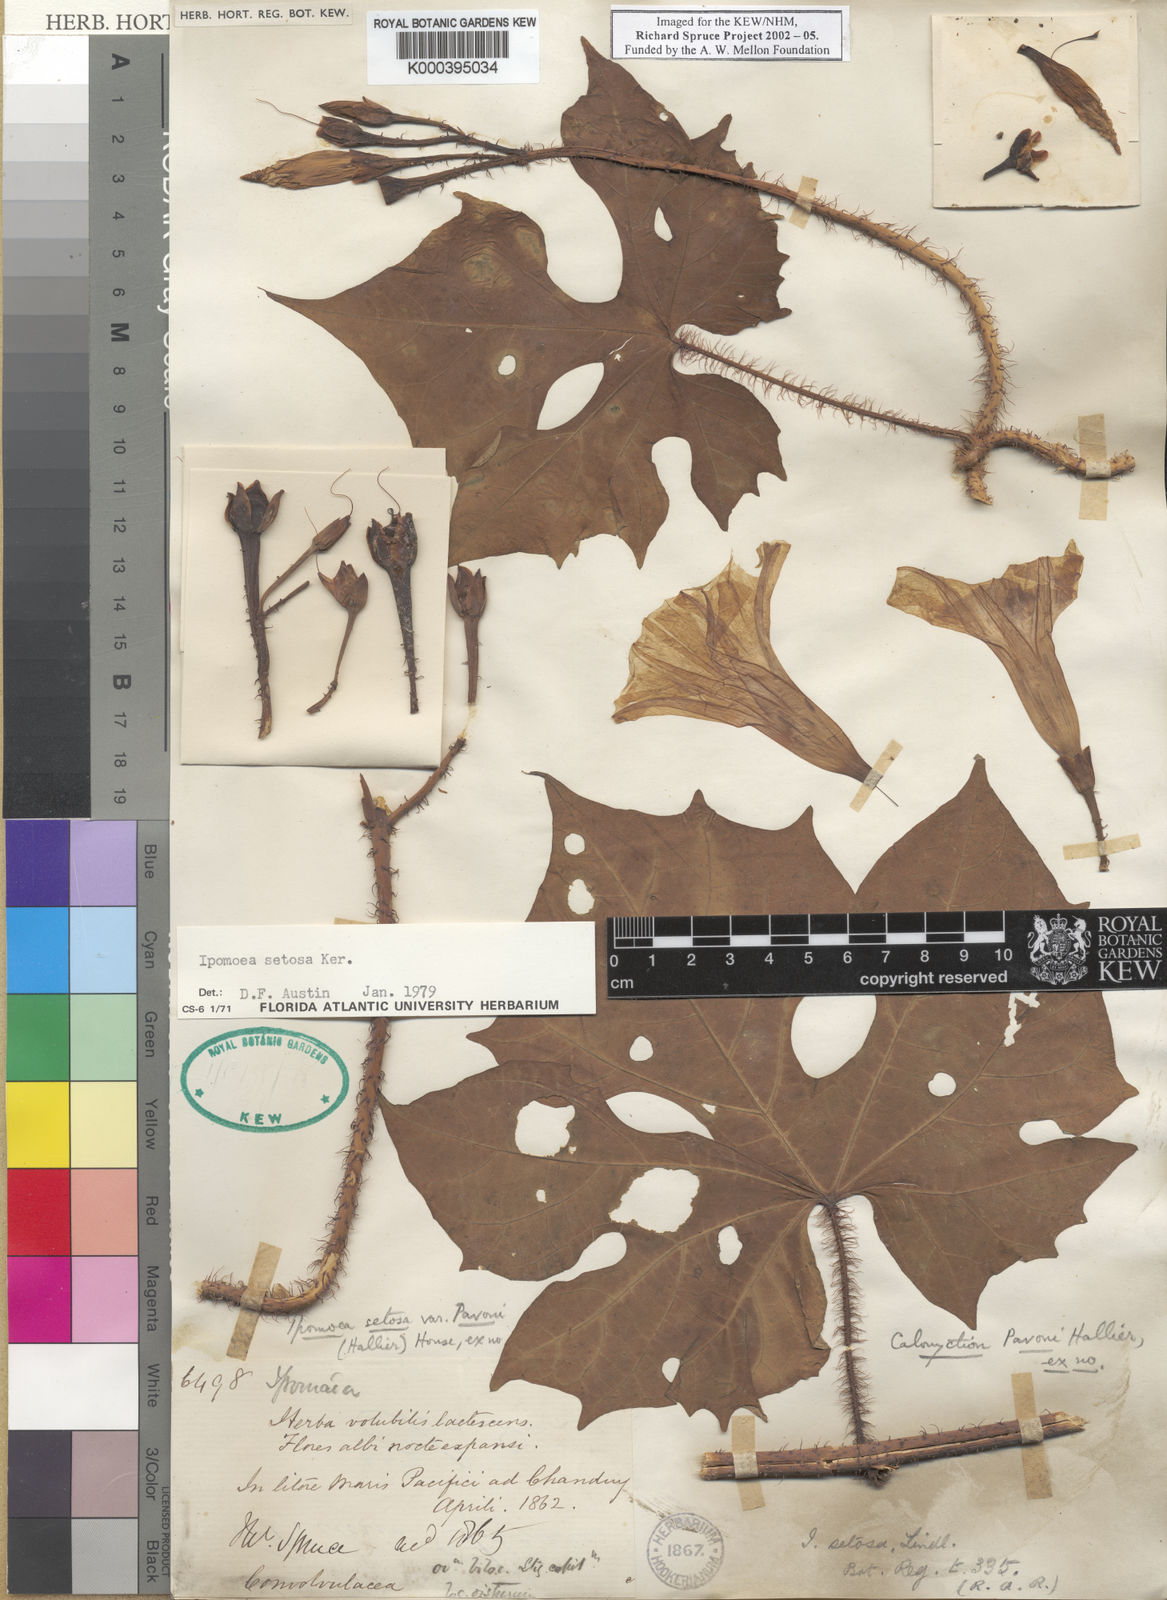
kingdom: Plantae
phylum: Tracheophyta
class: Magnoliopsida
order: Solanales
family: Convolvulaceae
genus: Ipomoea
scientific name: Ipomoea setosa
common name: Brazilian morning-glory
